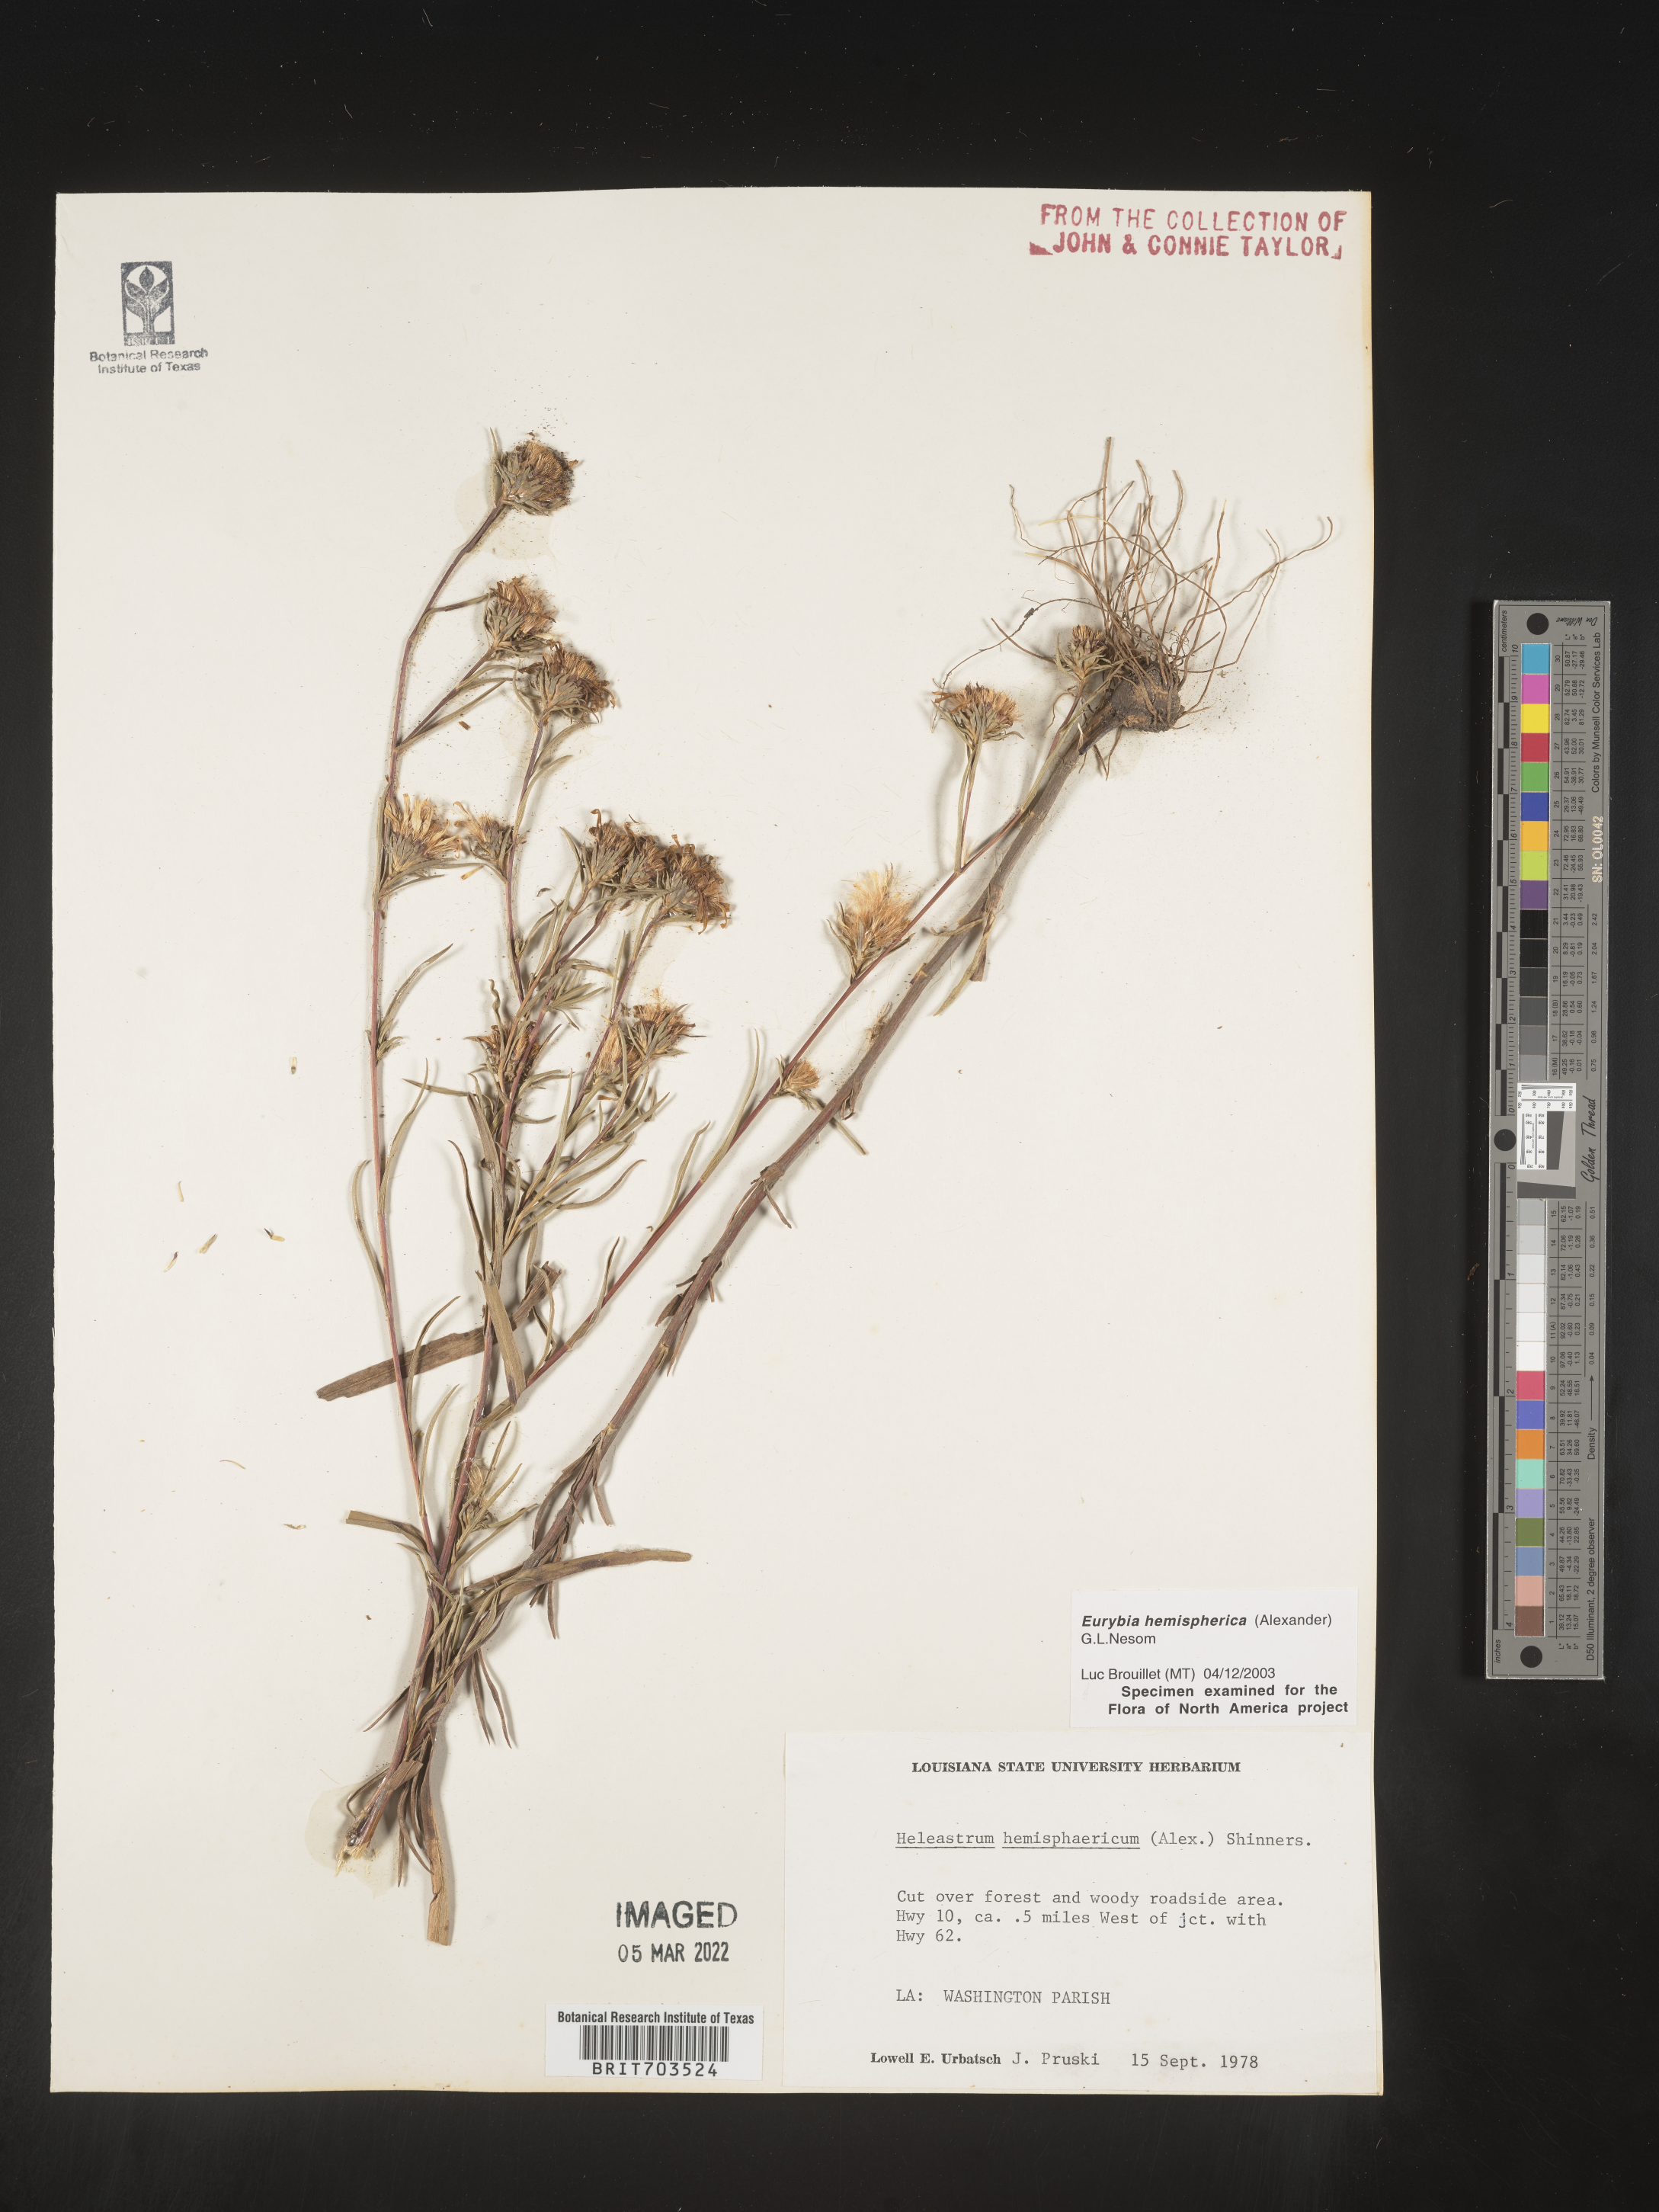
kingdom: Plantae
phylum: Tracheophyta
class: Magnoliopsida
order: Asterales
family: Asteraceae
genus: Eurybia
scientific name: Eurybia hemispherica
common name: Showy aster
